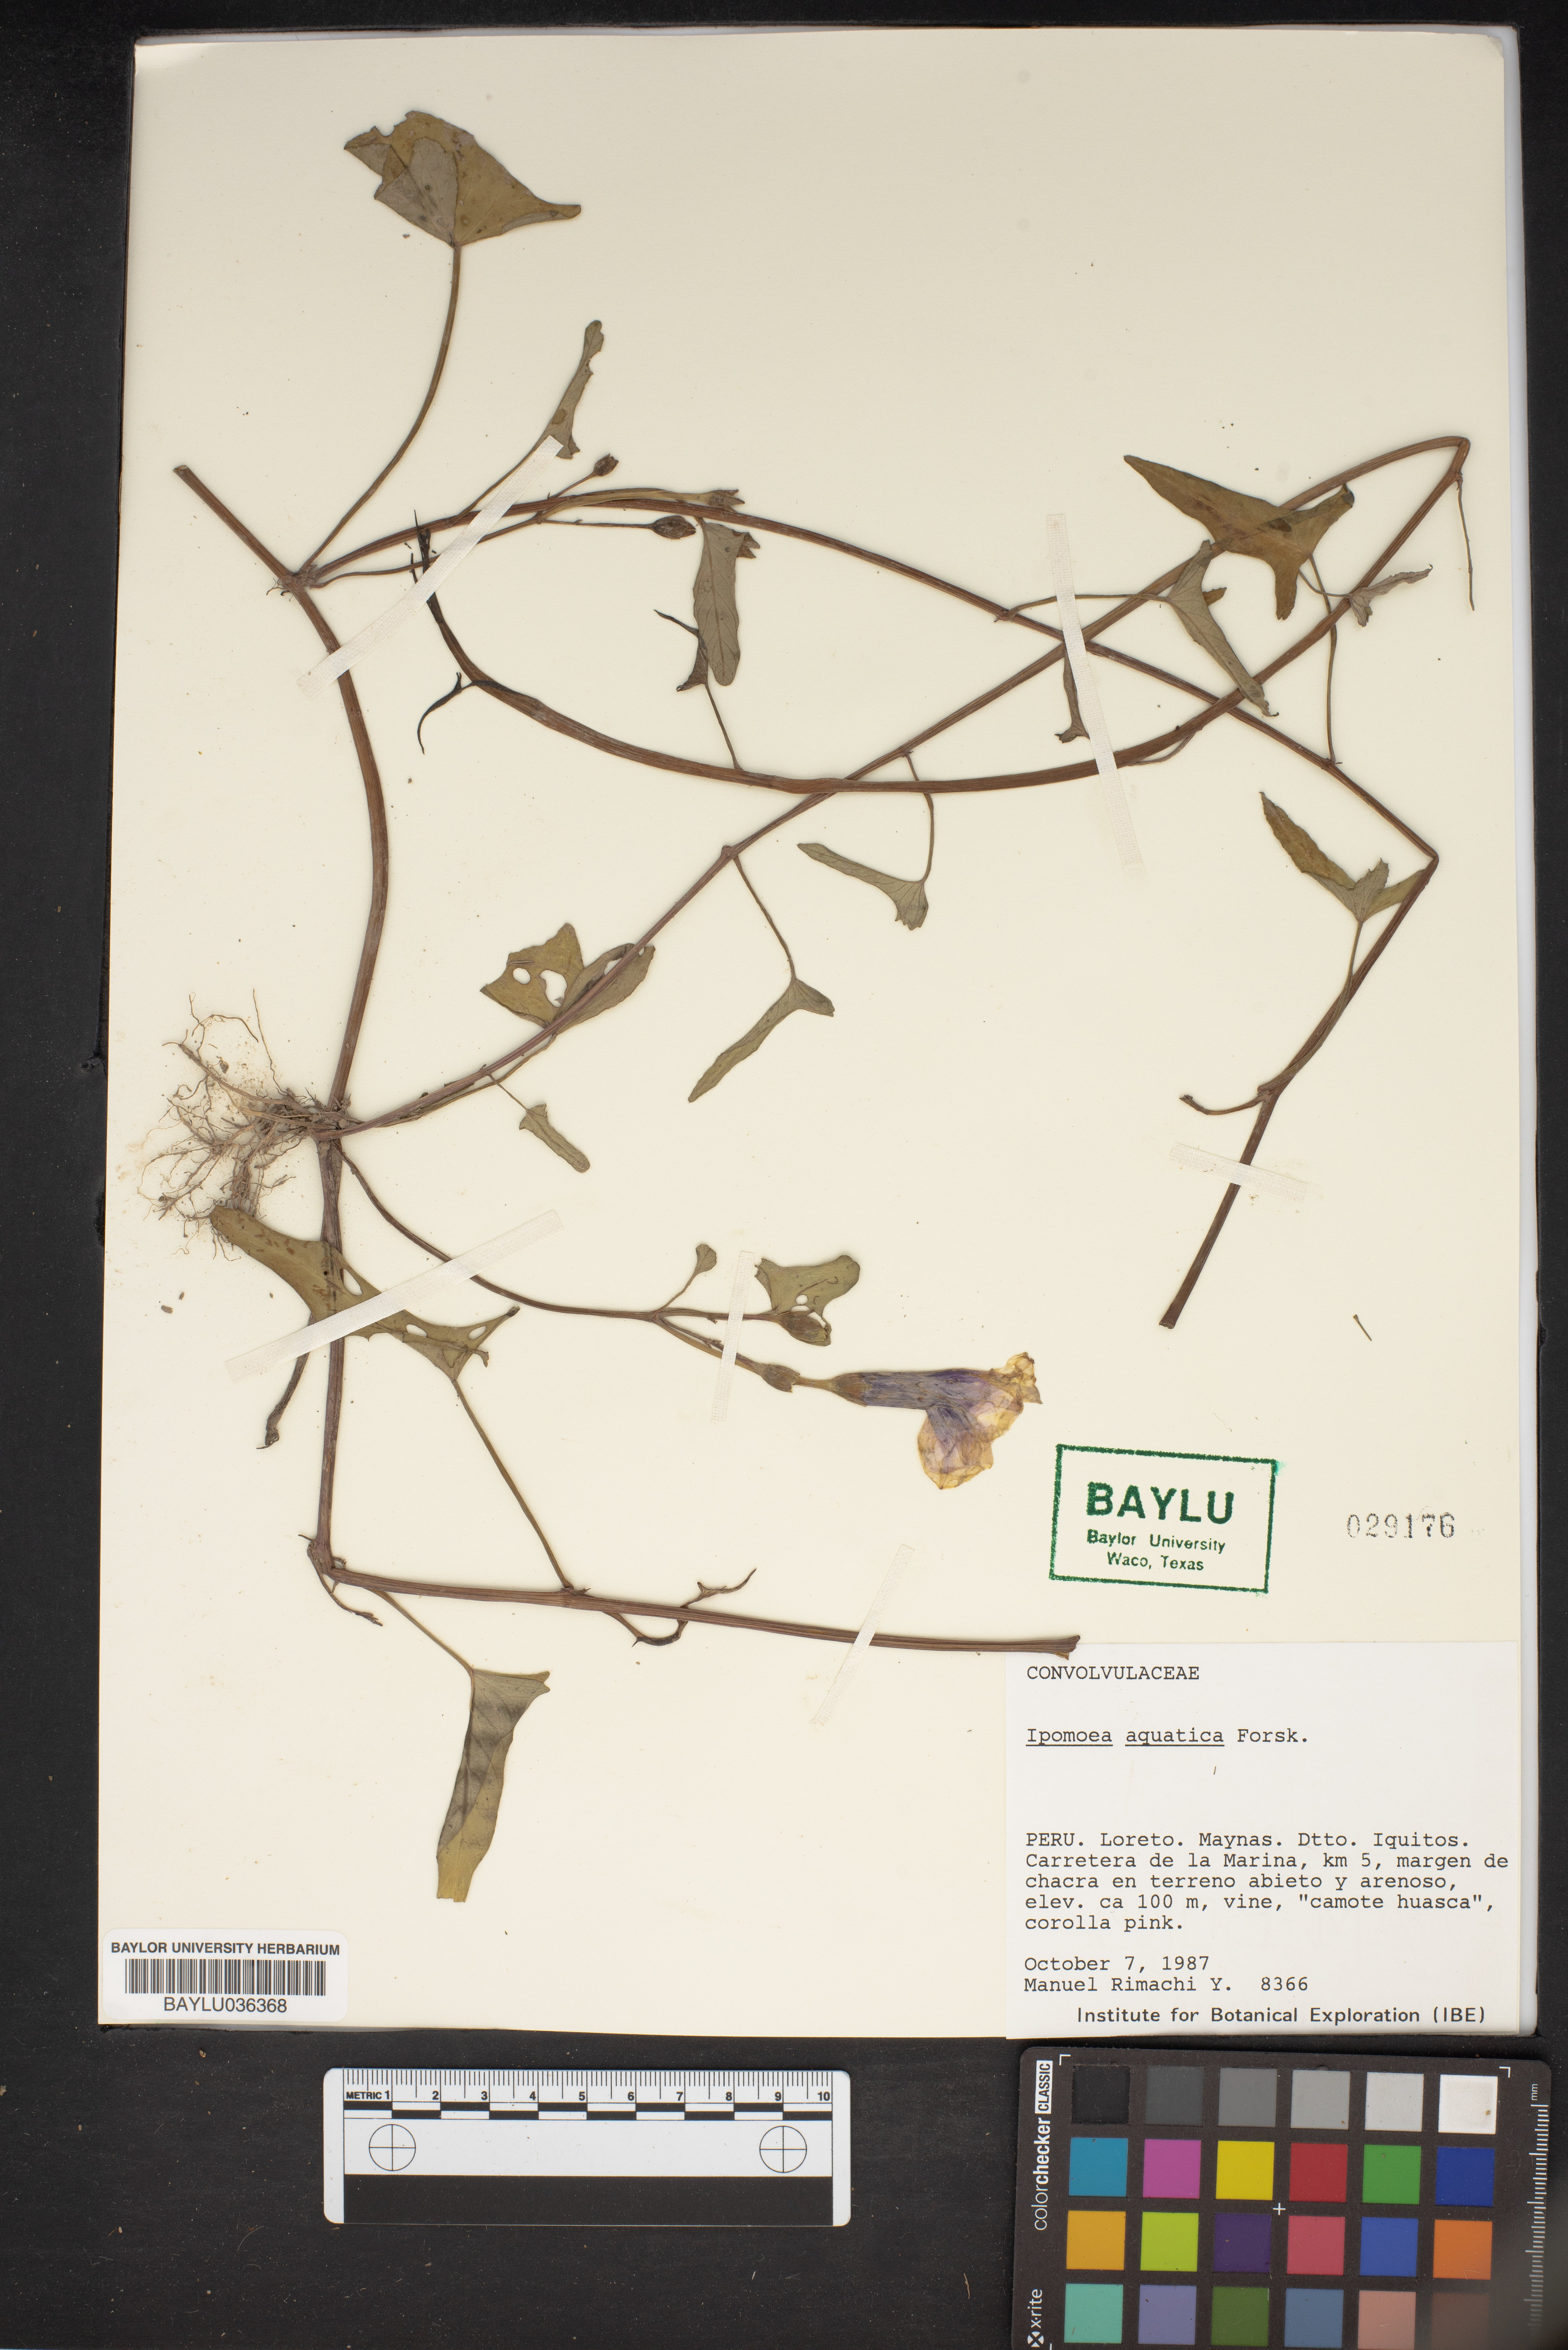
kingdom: Plantae
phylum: Tracheophyta
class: Magnoliopsida
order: Solanales
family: Convolvulaceae
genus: Ipomoea
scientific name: Ipomoea aquatica
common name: Swamp morning-glory
